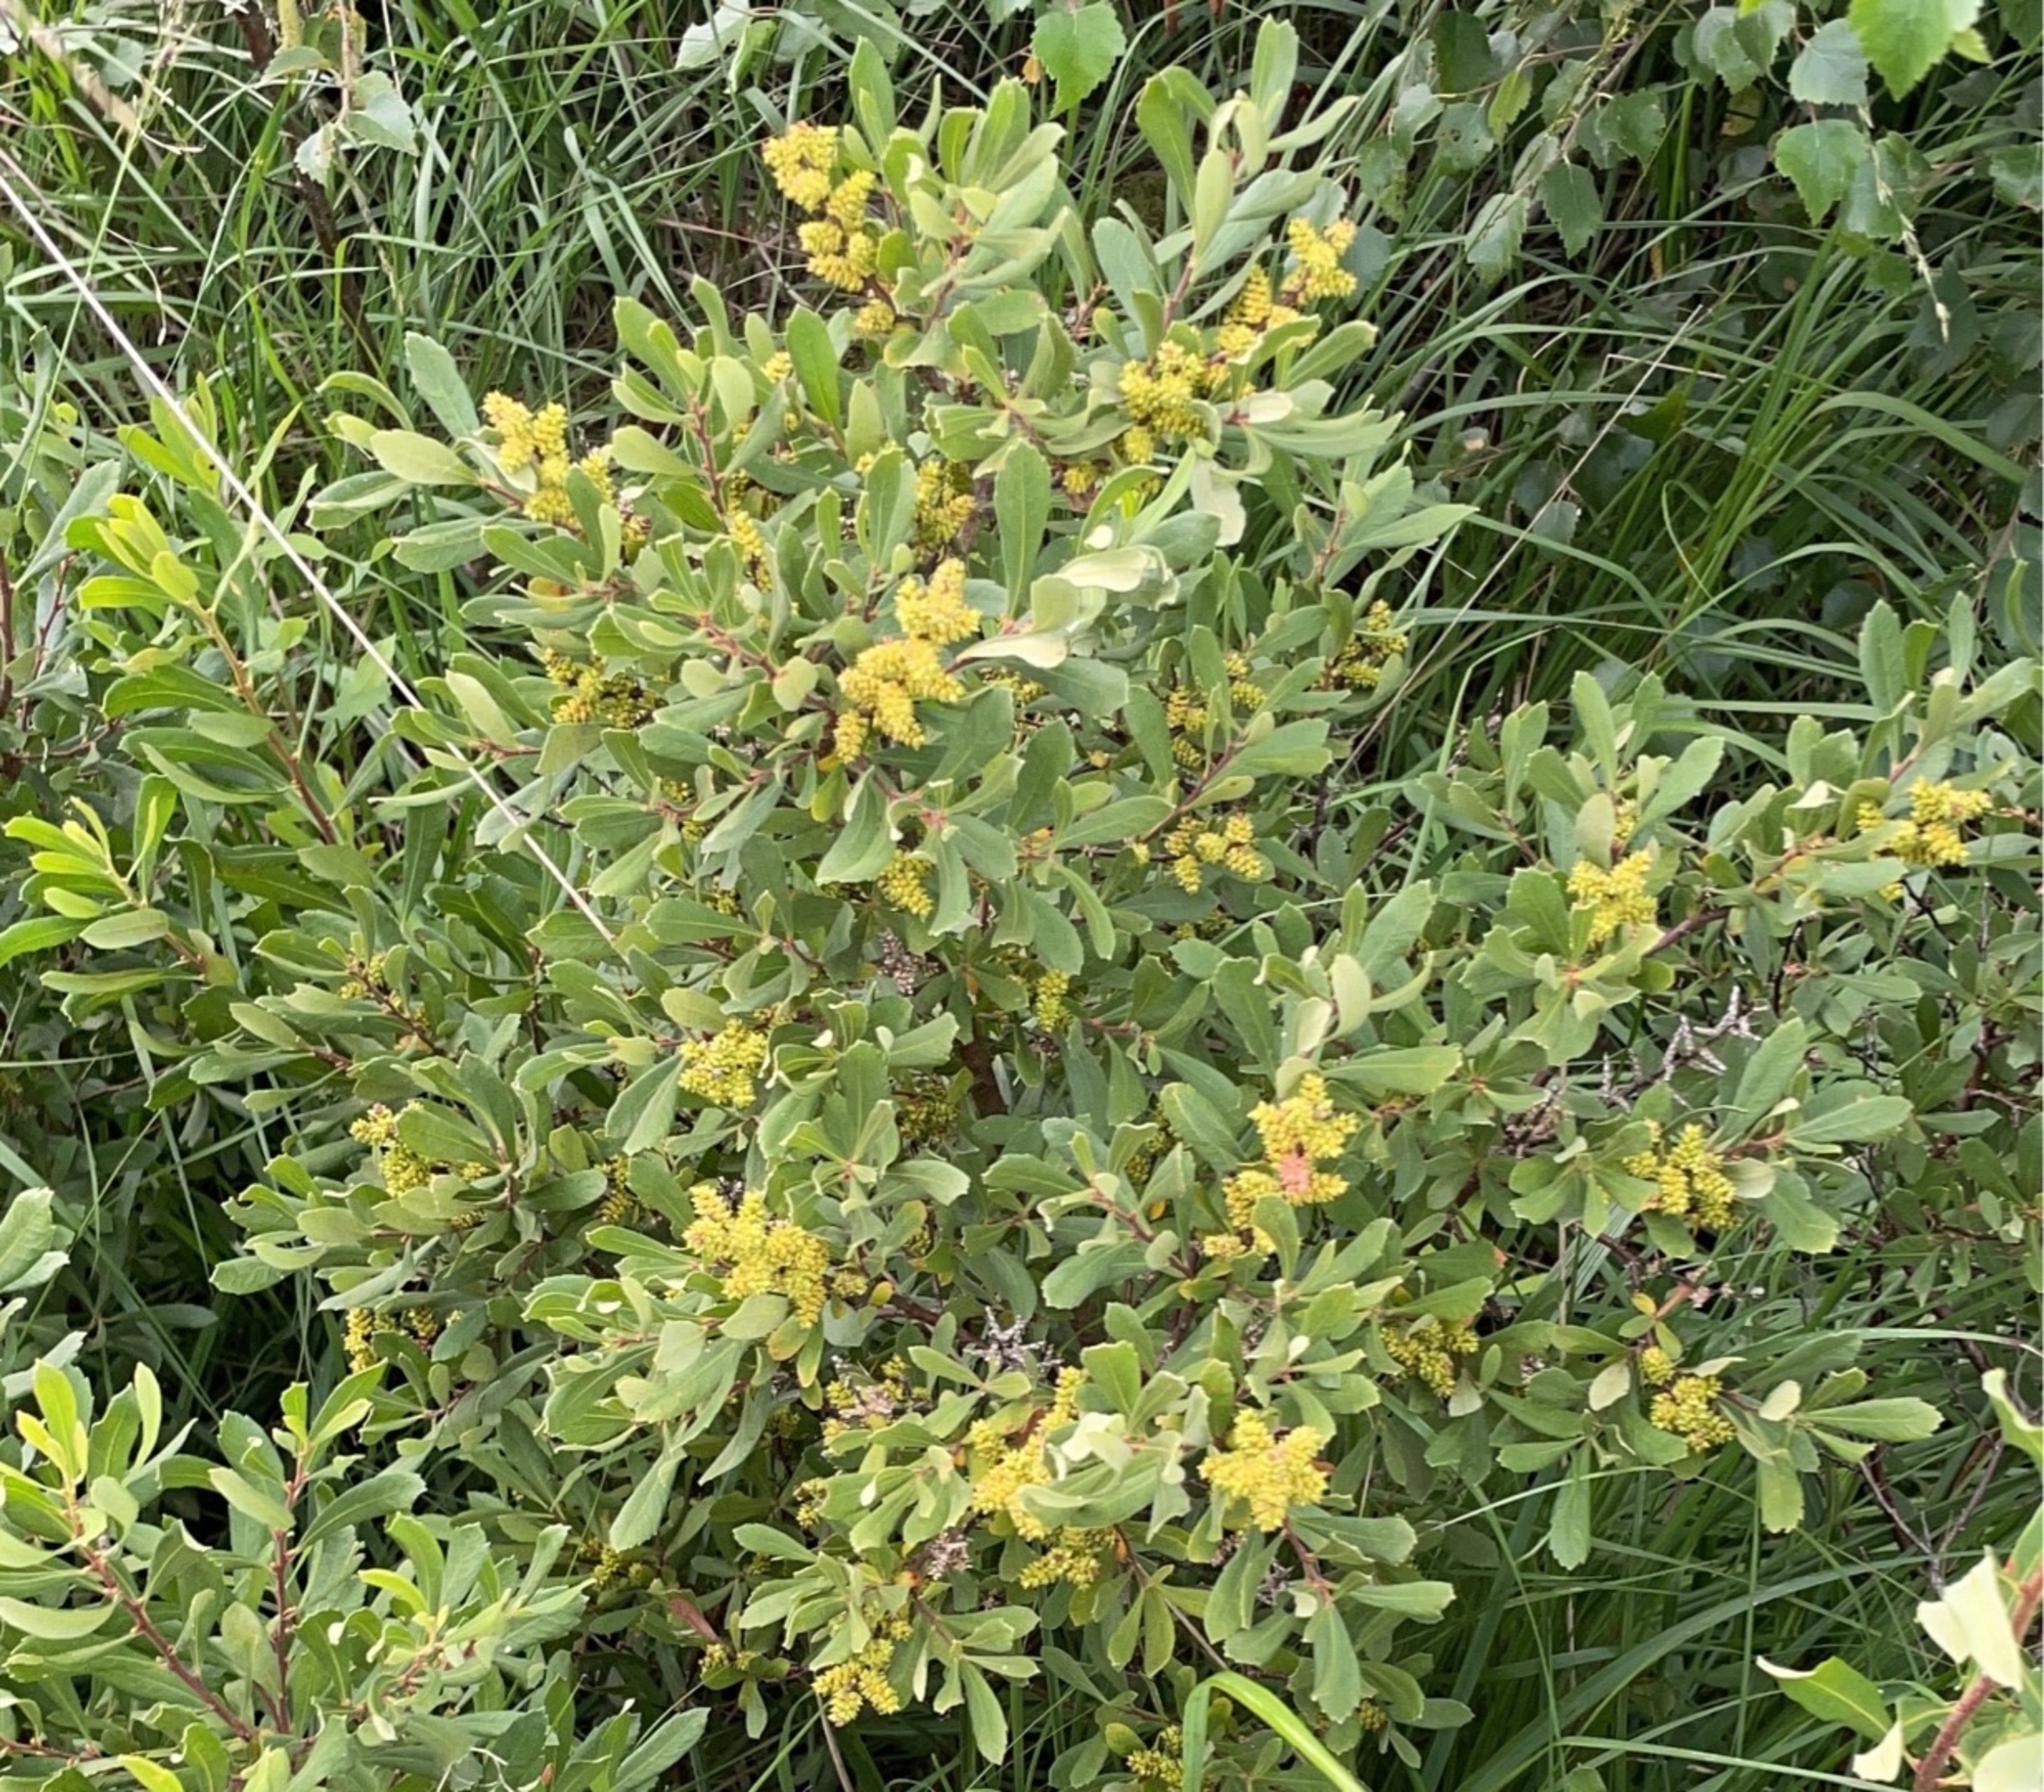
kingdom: Plantae
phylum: Tracheophyta
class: Magnoliopsida
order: Fagales
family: Myricaceae
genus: Myrica
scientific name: Myrica gale
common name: Pors
